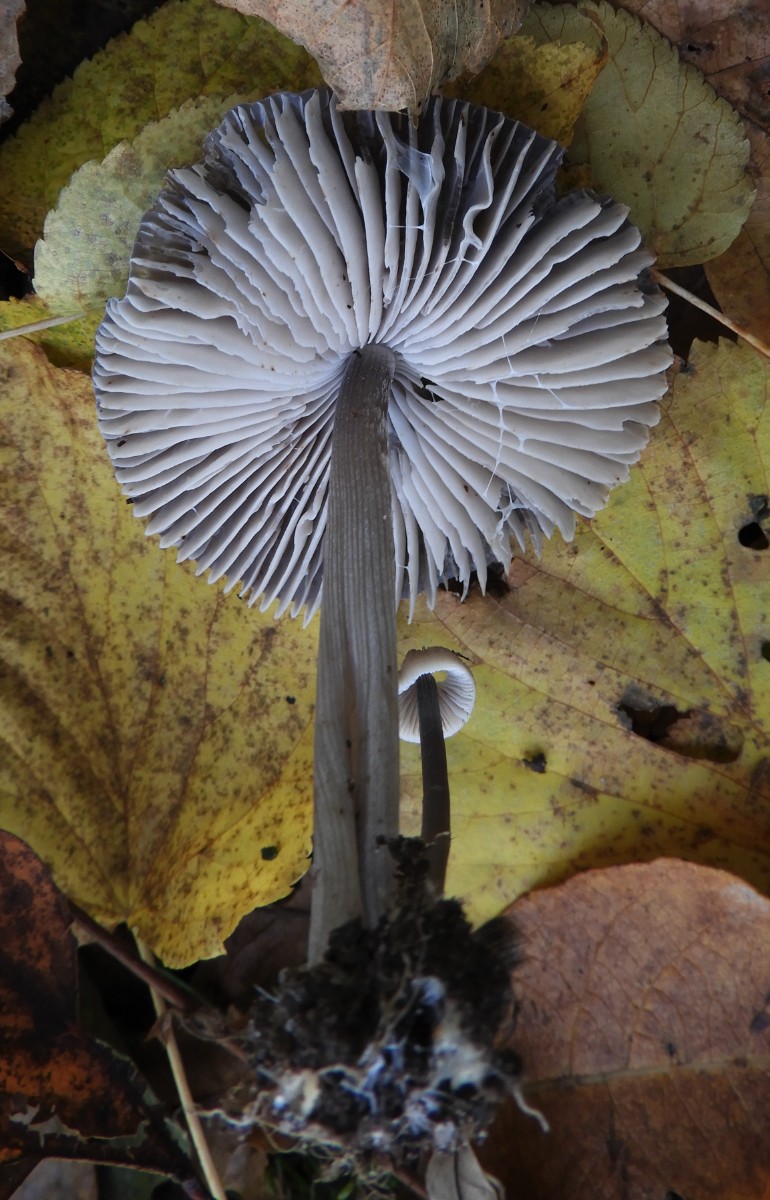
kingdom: Fungi
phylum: Basidiomycota
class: Agaricomycetes
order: Agaricales
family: Mycenaceae
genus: Mycena
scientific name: Mycena polygramma
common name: mangestribet huesvamp
